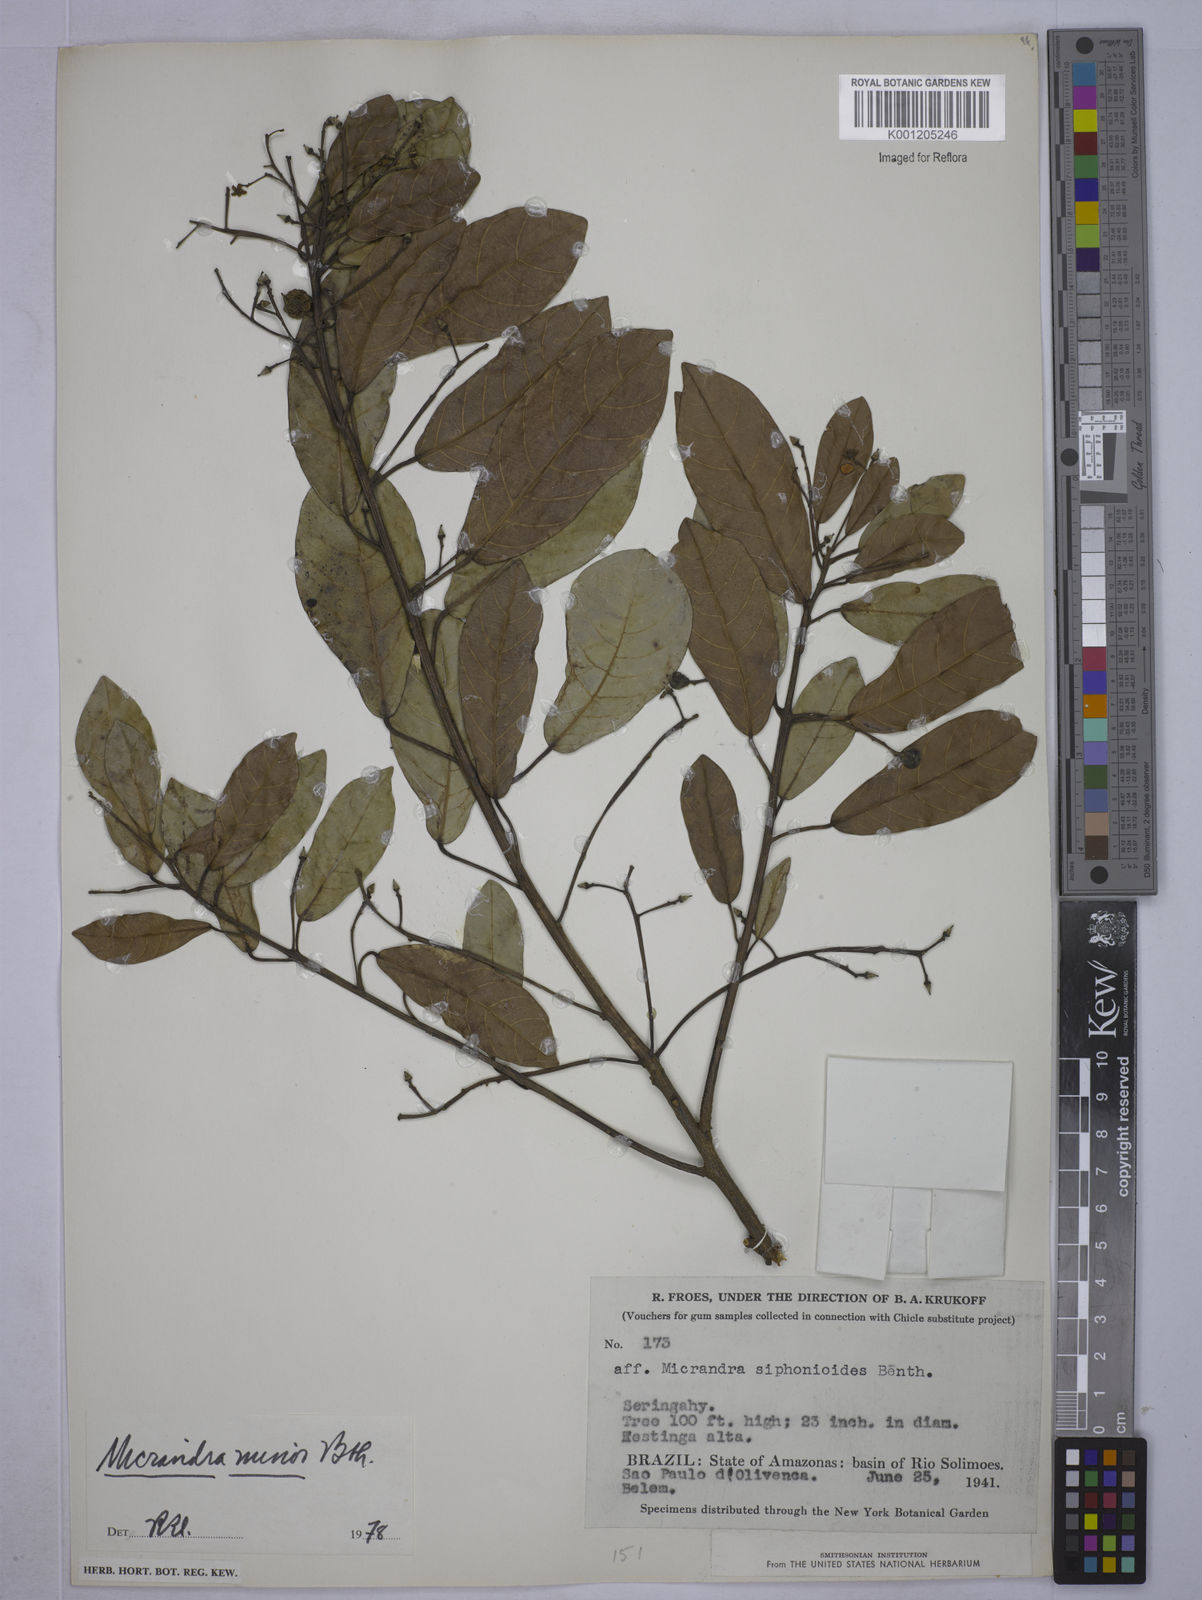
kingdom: Plantae
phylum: Tracheophyta
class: Magnoliopsida
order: Malpighiales
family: Euphorbiaceae
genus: Micrandra
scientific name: Micrandra minor
